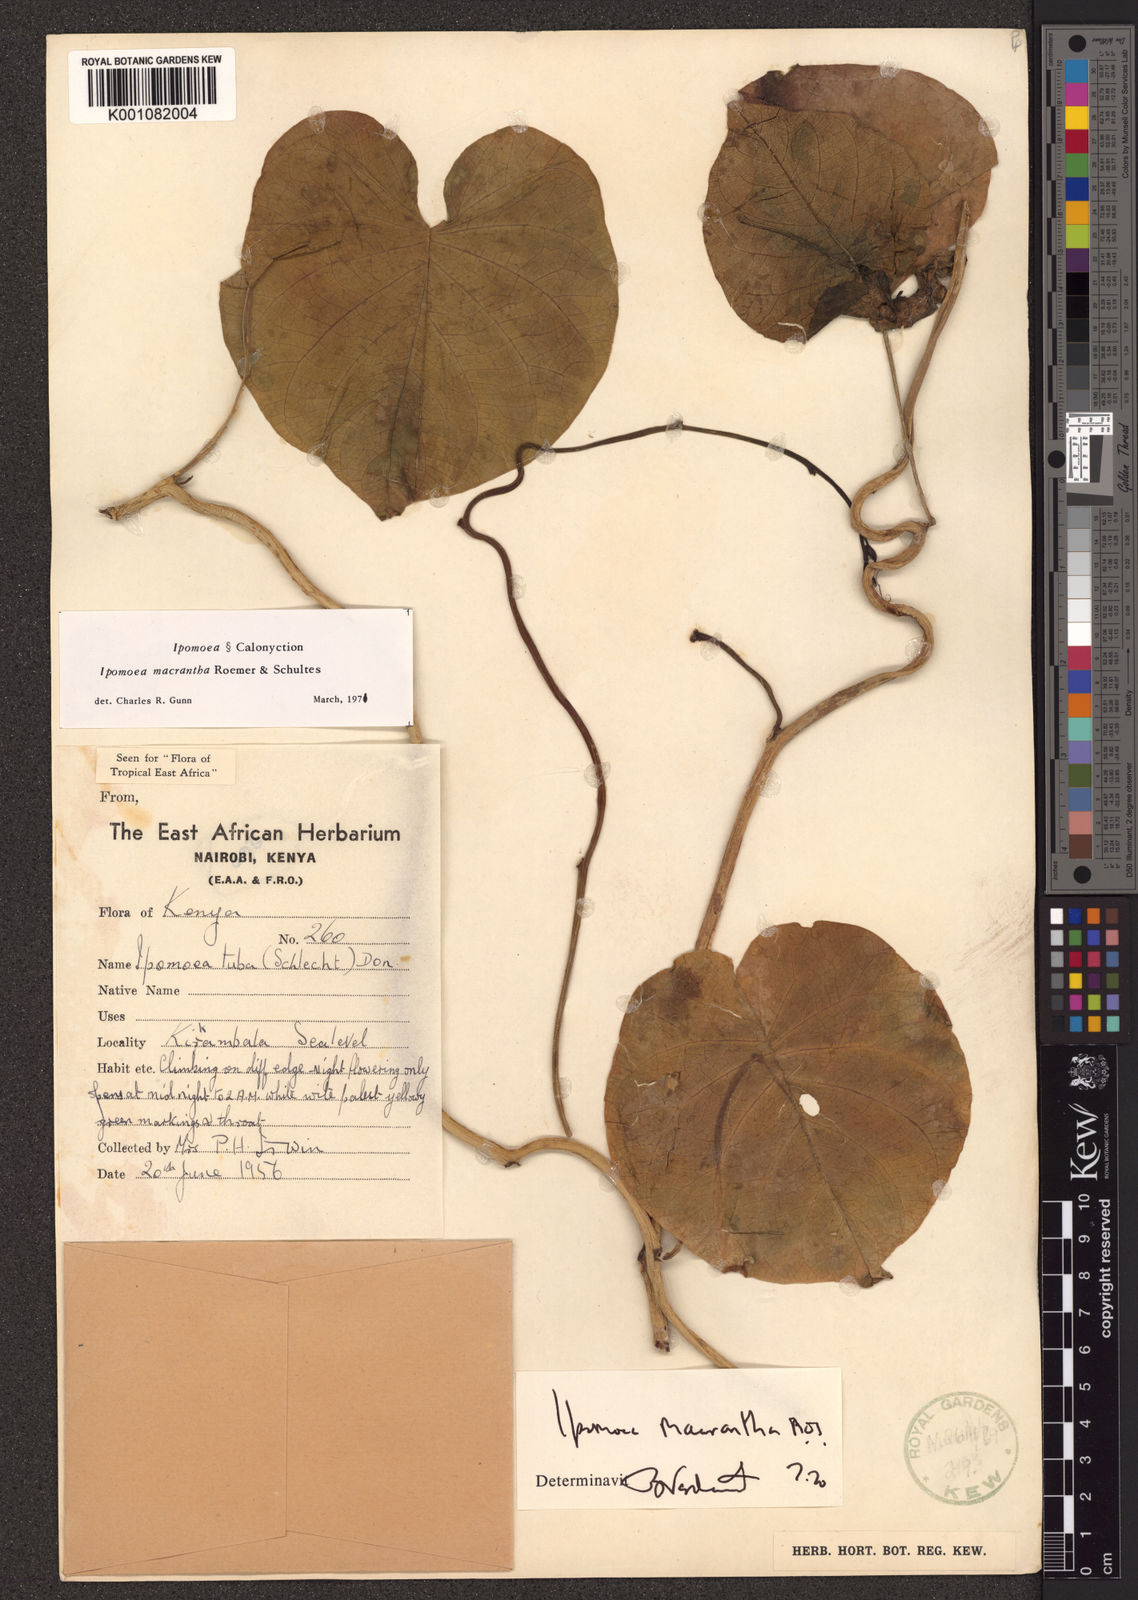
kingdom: Plantae
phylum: Tracheophyta
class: Magnoliopsida
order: Solanales
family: Convolvulaceae
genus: Ipomoea
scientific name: Ipomoea violacea
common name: Beach moonflower
